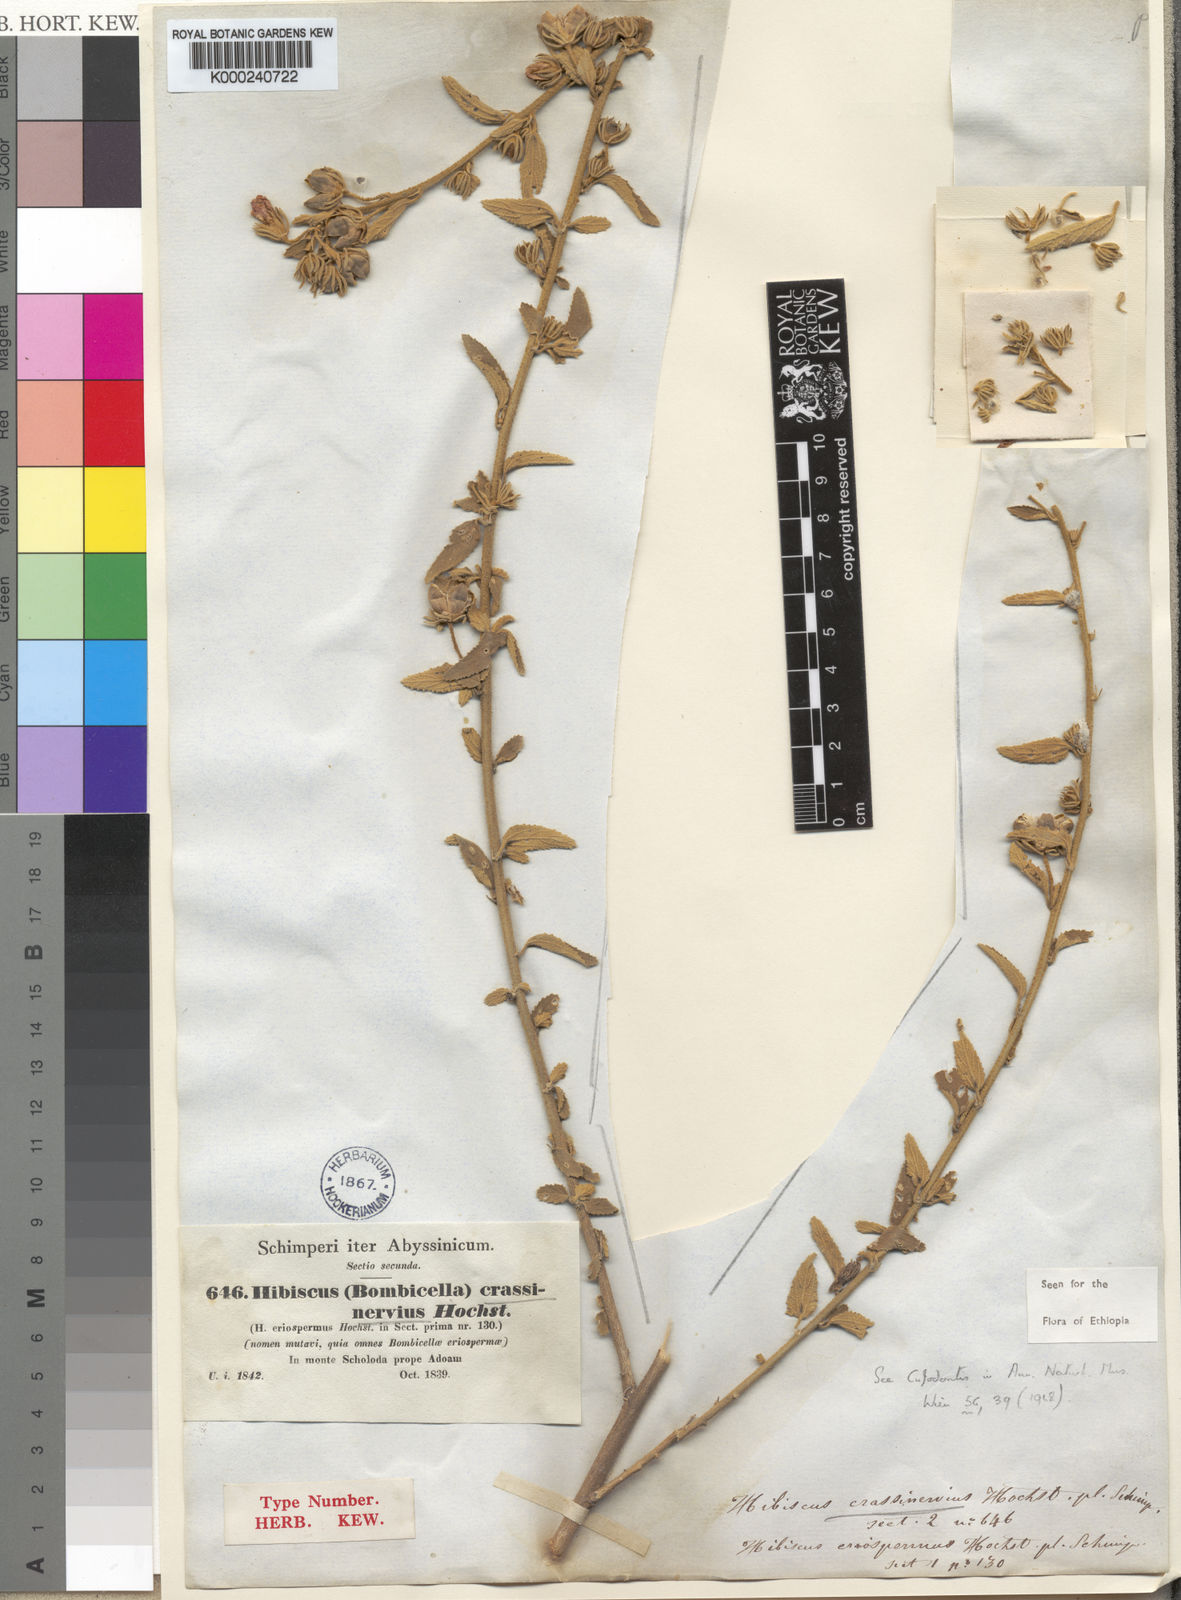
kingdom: Plantae
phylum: Tracheophyta
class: Magnoliopsida
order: Malvales
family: Malvaceae
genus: Hibiscus
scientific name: Hibiscus crassinervius
